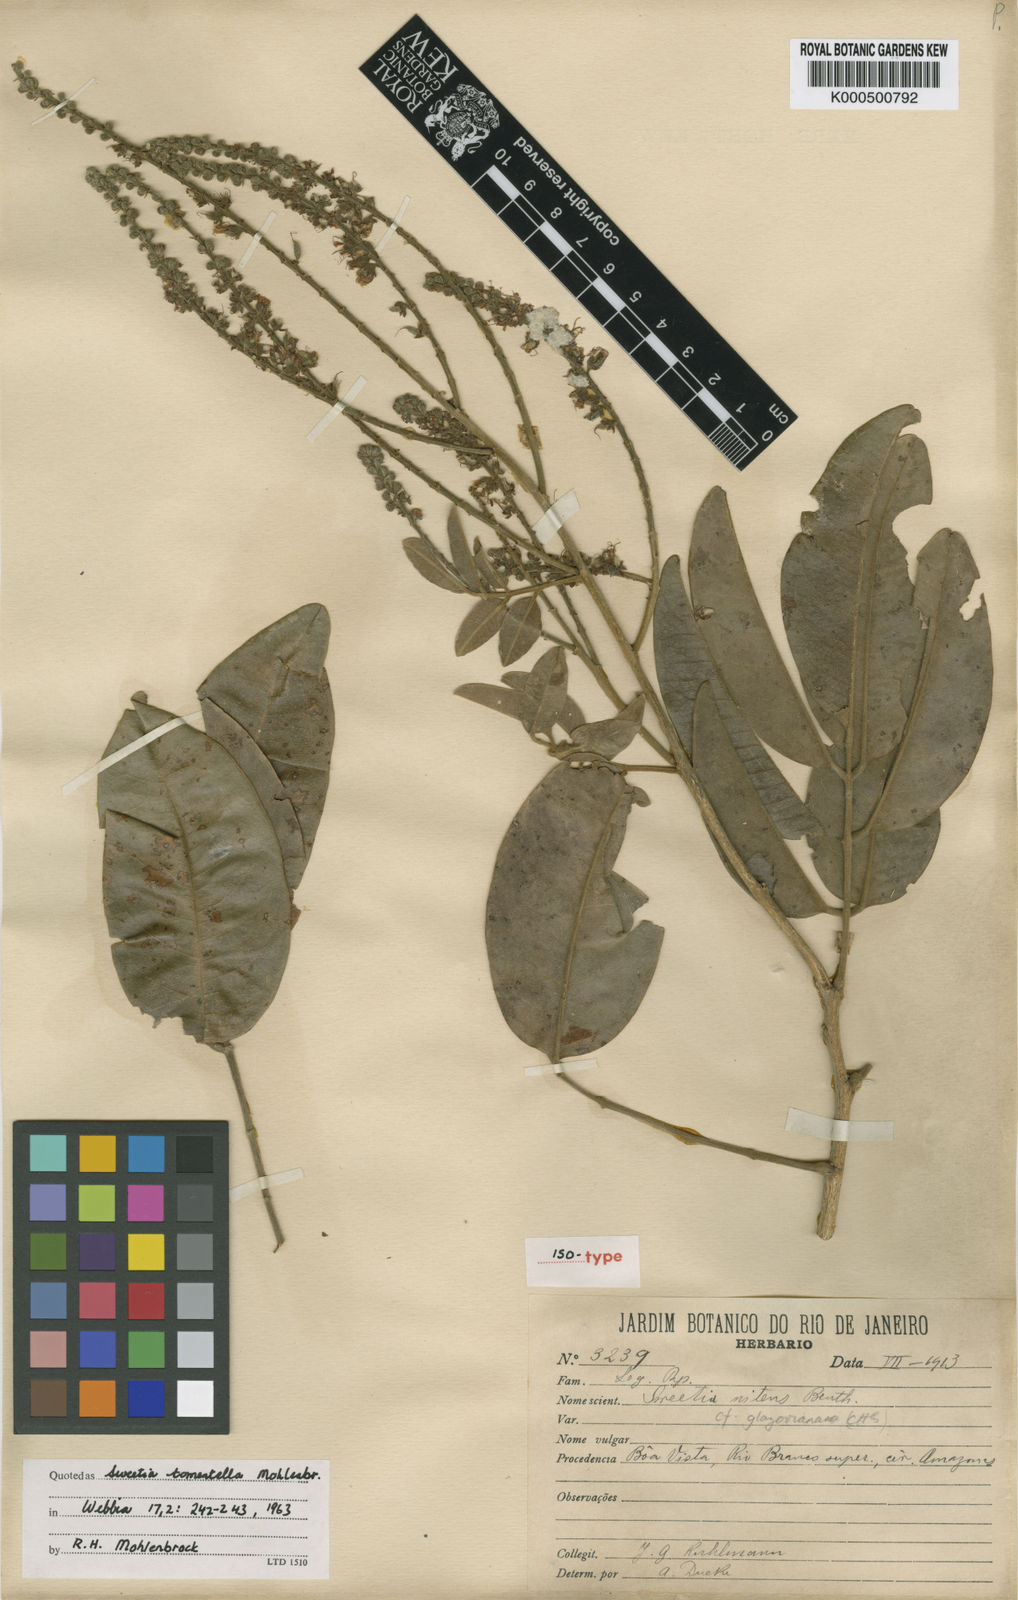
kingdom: Plantae
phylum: Tracheophyta
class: Magnoliopsida
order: Fabales
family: Fabaceae
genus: Leptolobium
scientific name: Leptolobium nitens
